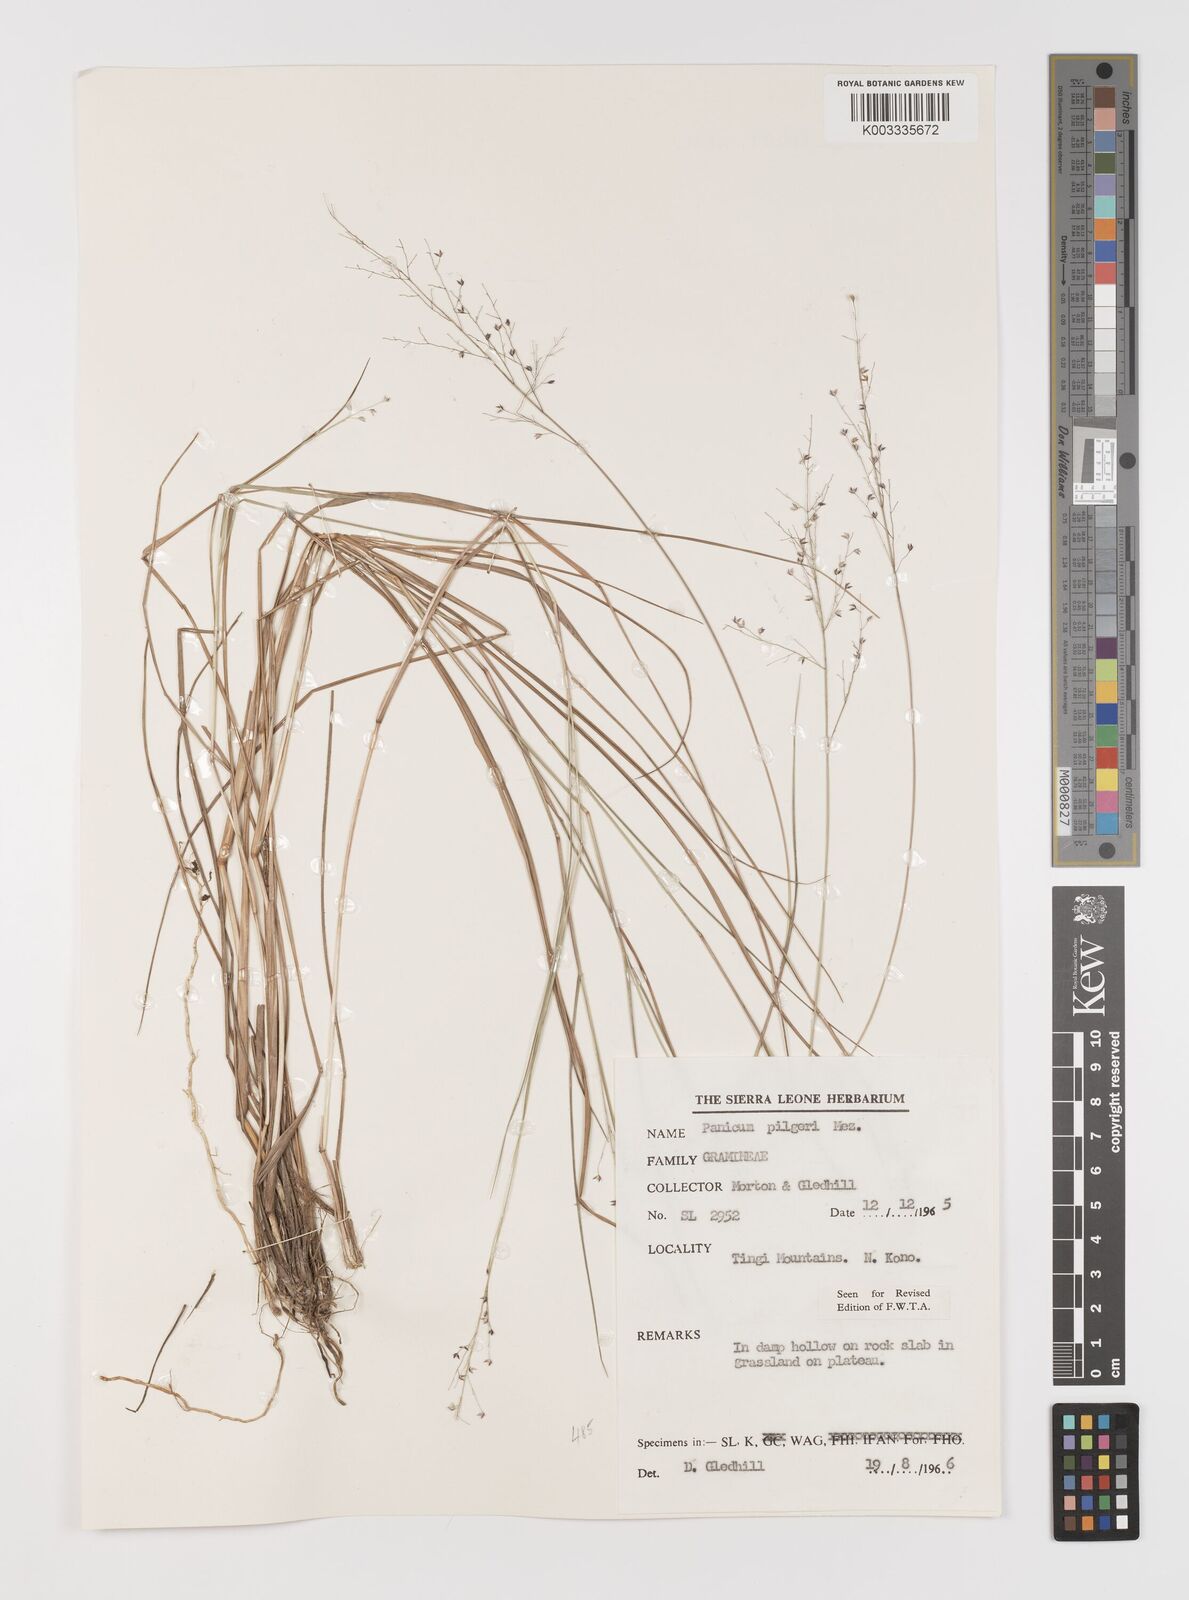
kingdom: Plantae
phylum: Tracheophyta
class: Liliopsida
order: Poales
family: Poaceae
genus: Panicum
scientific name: Panicum
